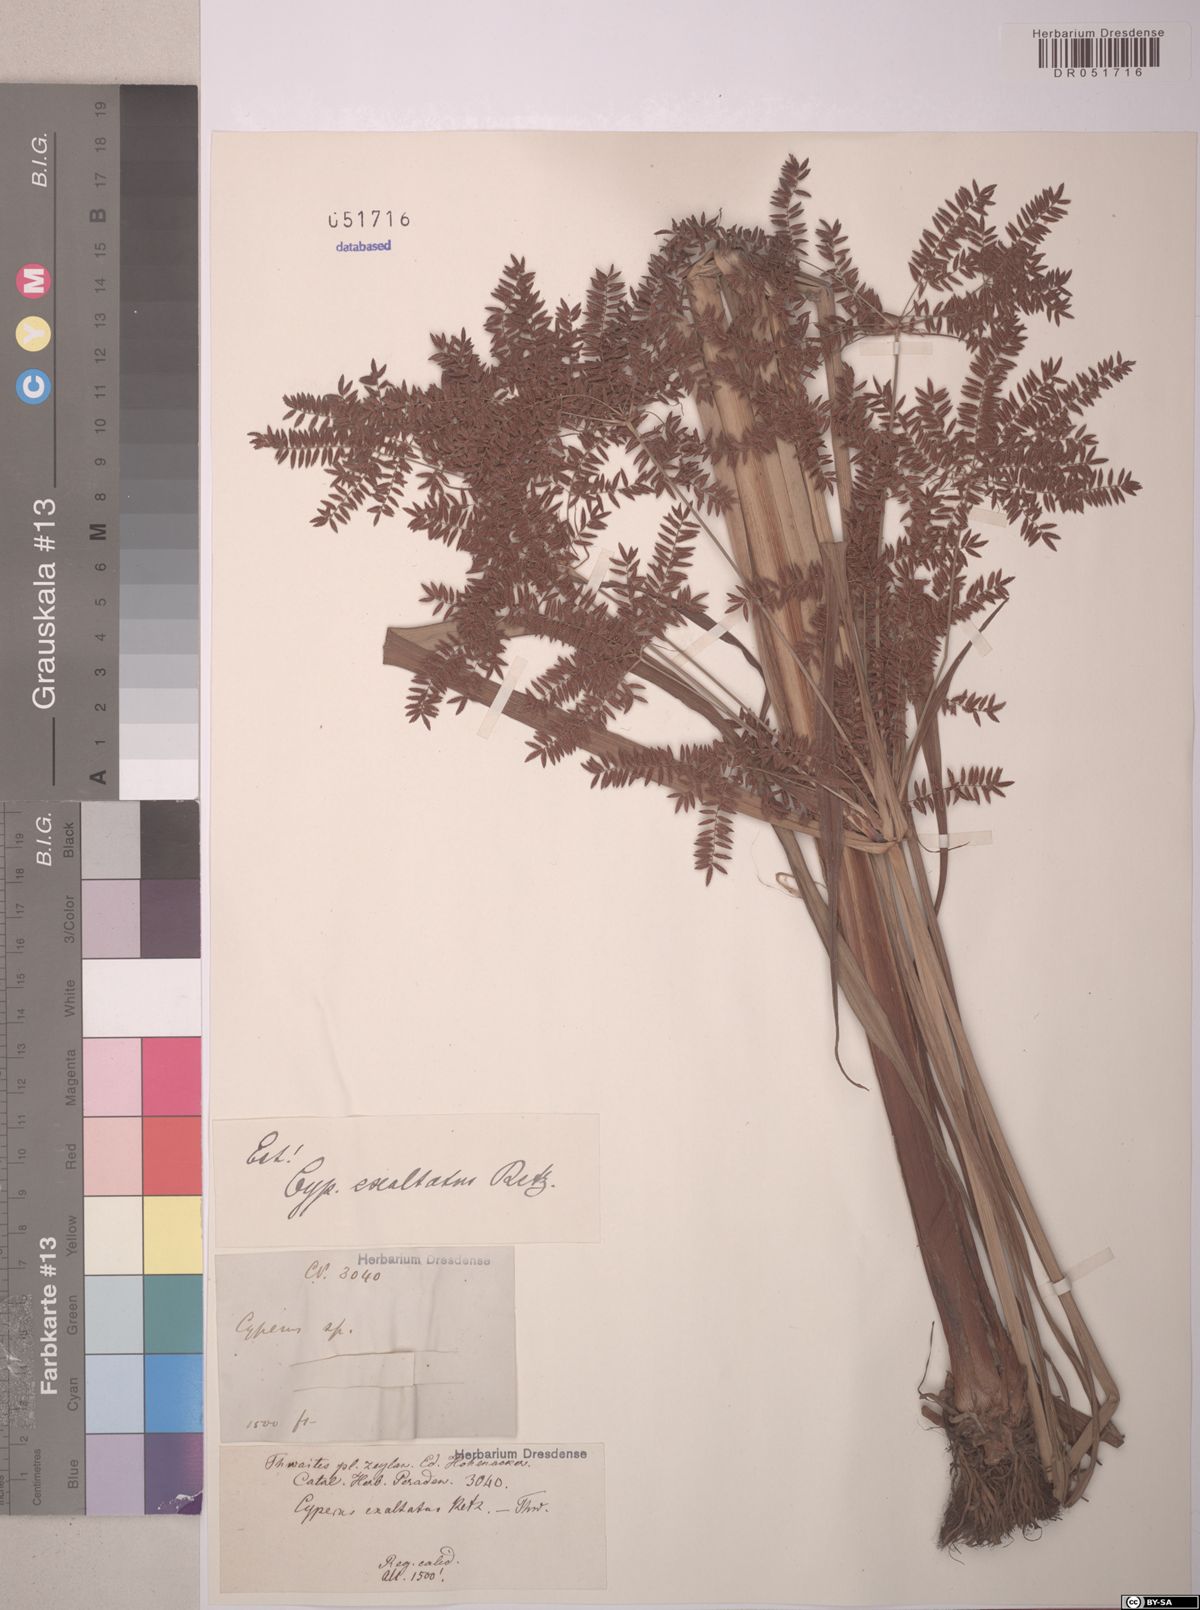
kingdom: Plantae
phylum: Tracheophyta
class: Liliopsida
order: Poales
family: Cyperaceae
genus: Cyperus
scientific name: Cyperus exaltatus
